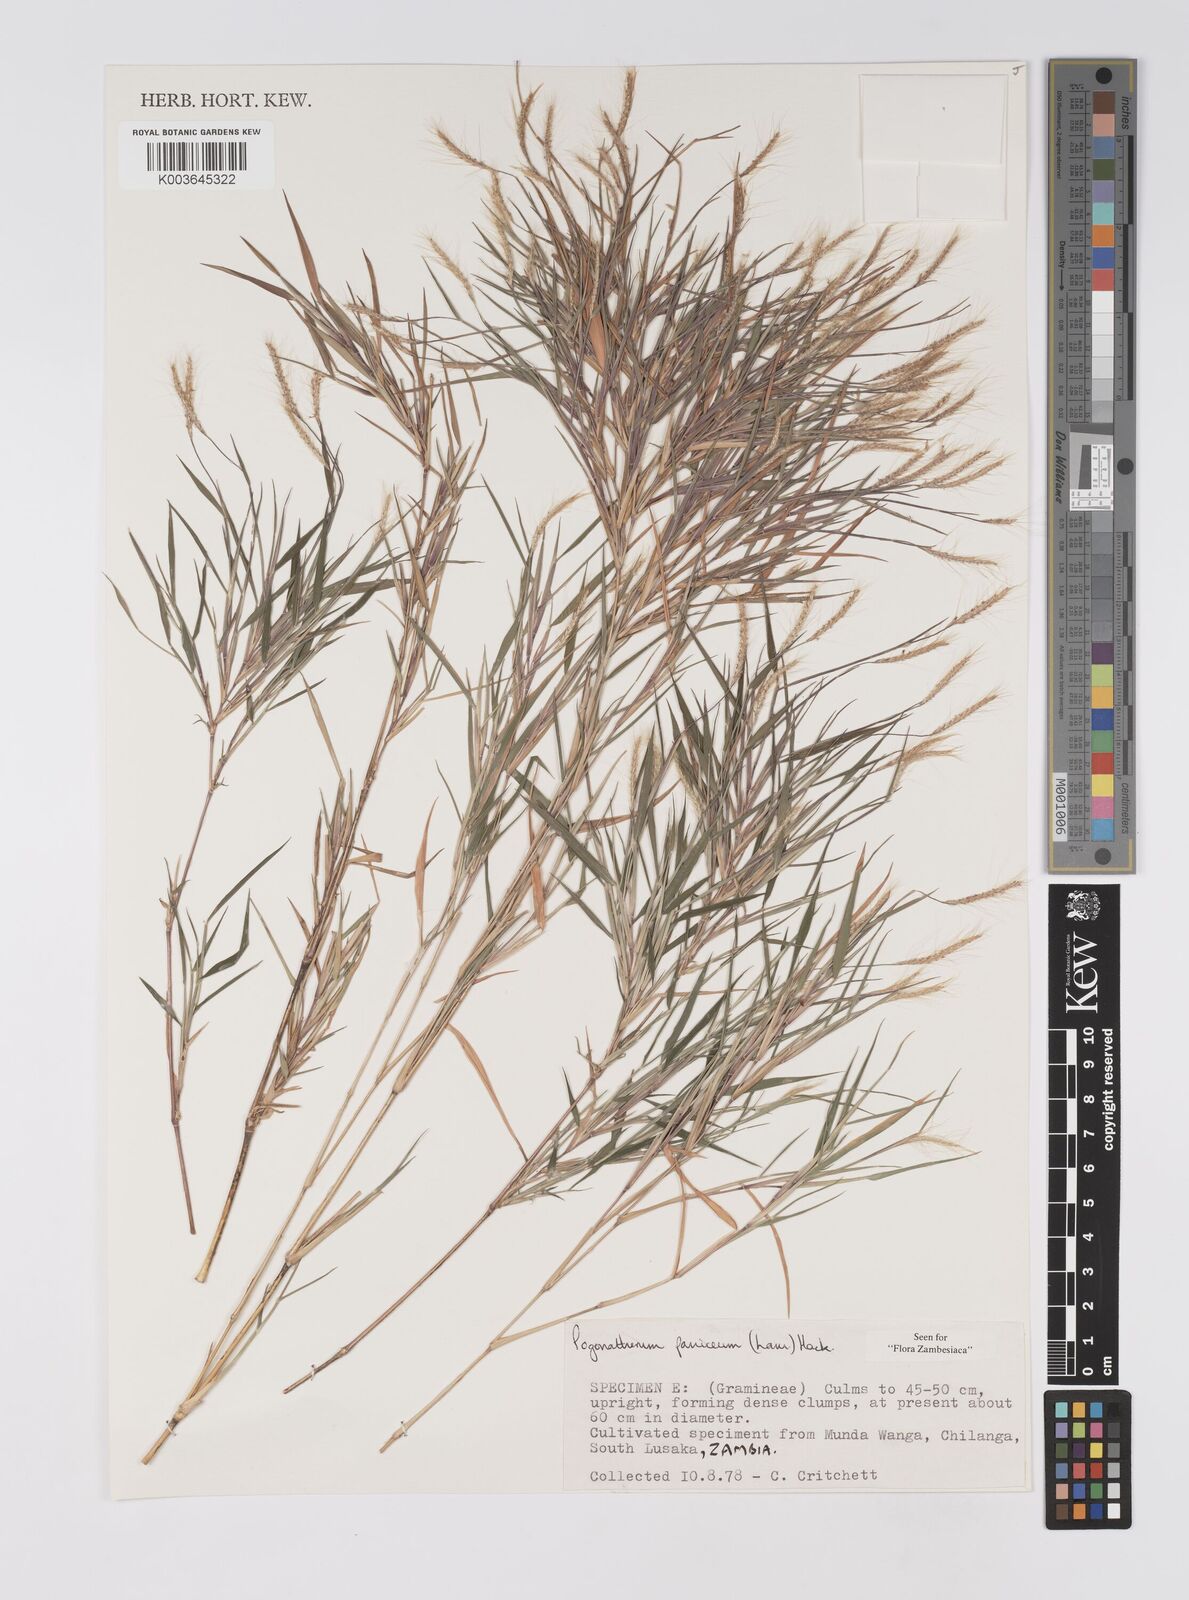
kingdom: Plantae
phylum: Tracheophyta
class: Liliopsida
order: Poales
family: Poaceae
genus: Pogonatherum
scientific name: Pogonatherum paniceum
